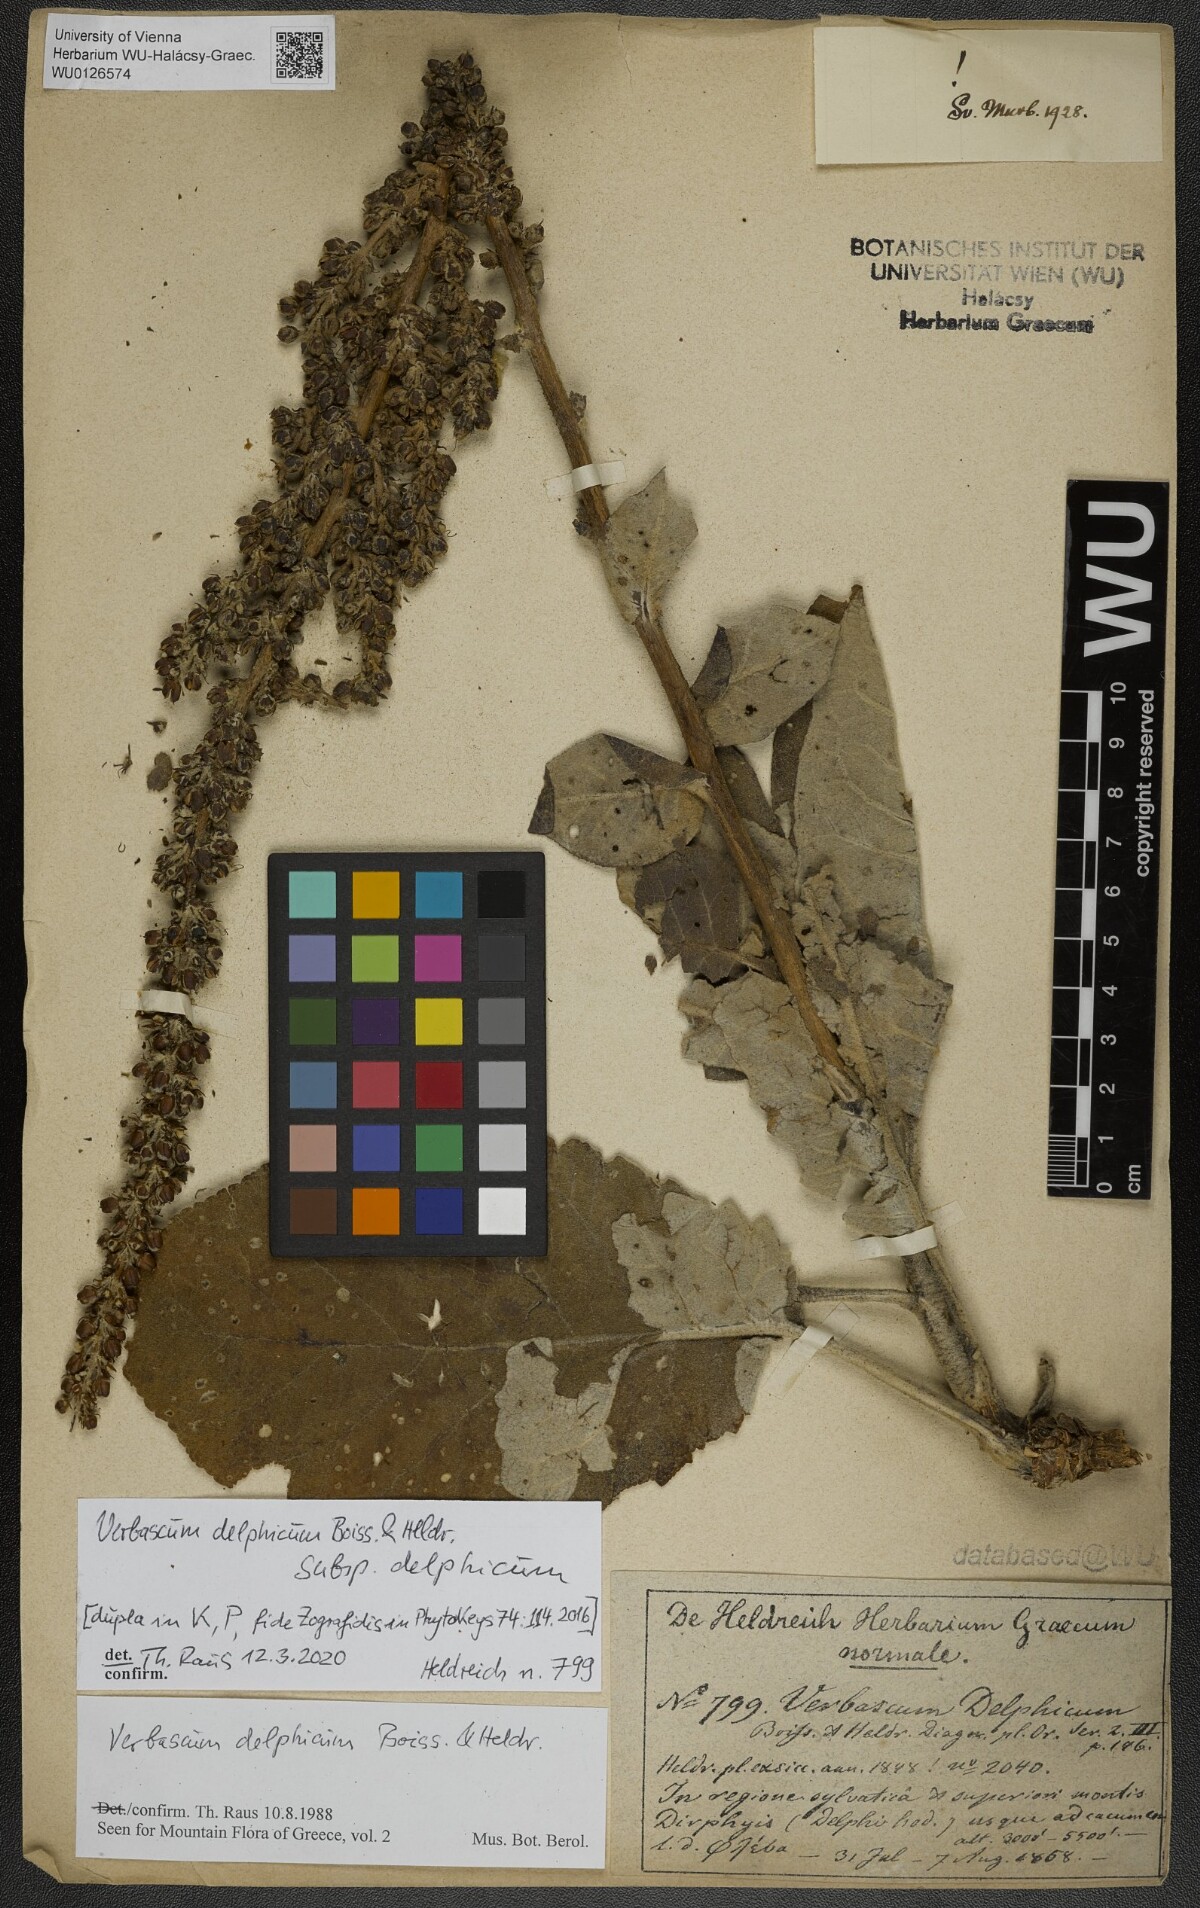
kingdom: Plantae
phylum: Tracheophyta
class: Magnoliopsida
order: Lamiales
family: Scrophulariaceae
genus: Verbascum
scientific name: Verbascum delphicum
